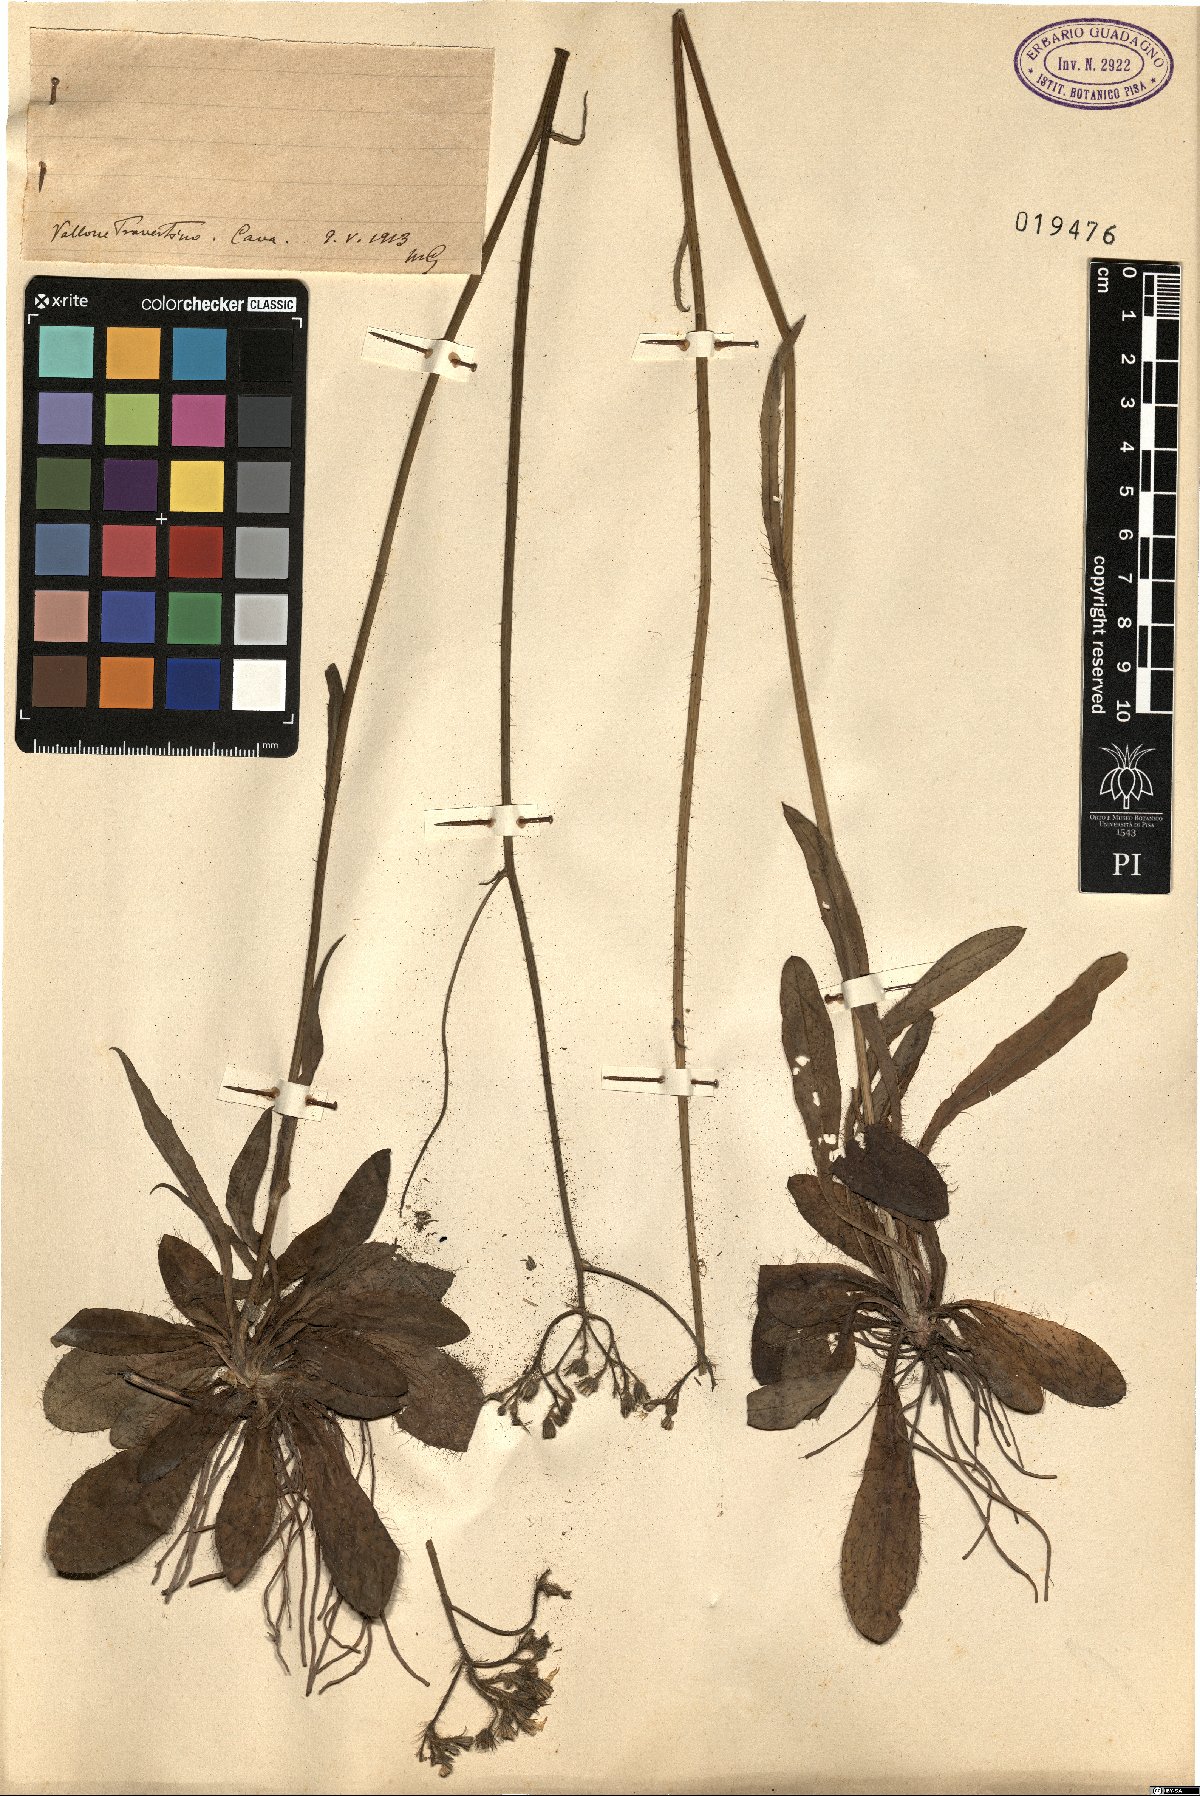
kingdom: Plantae
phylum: Tracheophyta
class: Magnoliopsida
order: Asterales
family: Asteraceae
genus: Hieracium
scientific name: Hieracium
